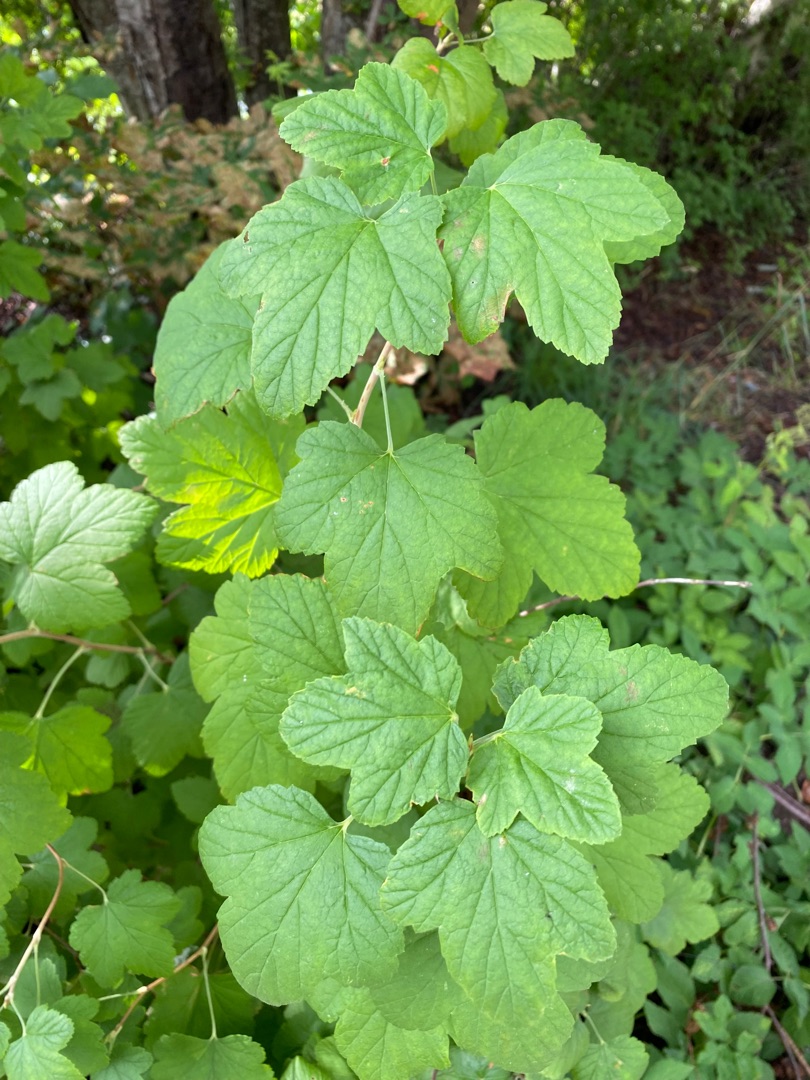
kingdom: Plantae
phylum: Tracheophyta
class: Magnoliopsida
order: Saxifragales
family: Grossulariaceae
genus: Ribes
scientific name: Ribes sanguineum
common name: Blod-ribs
